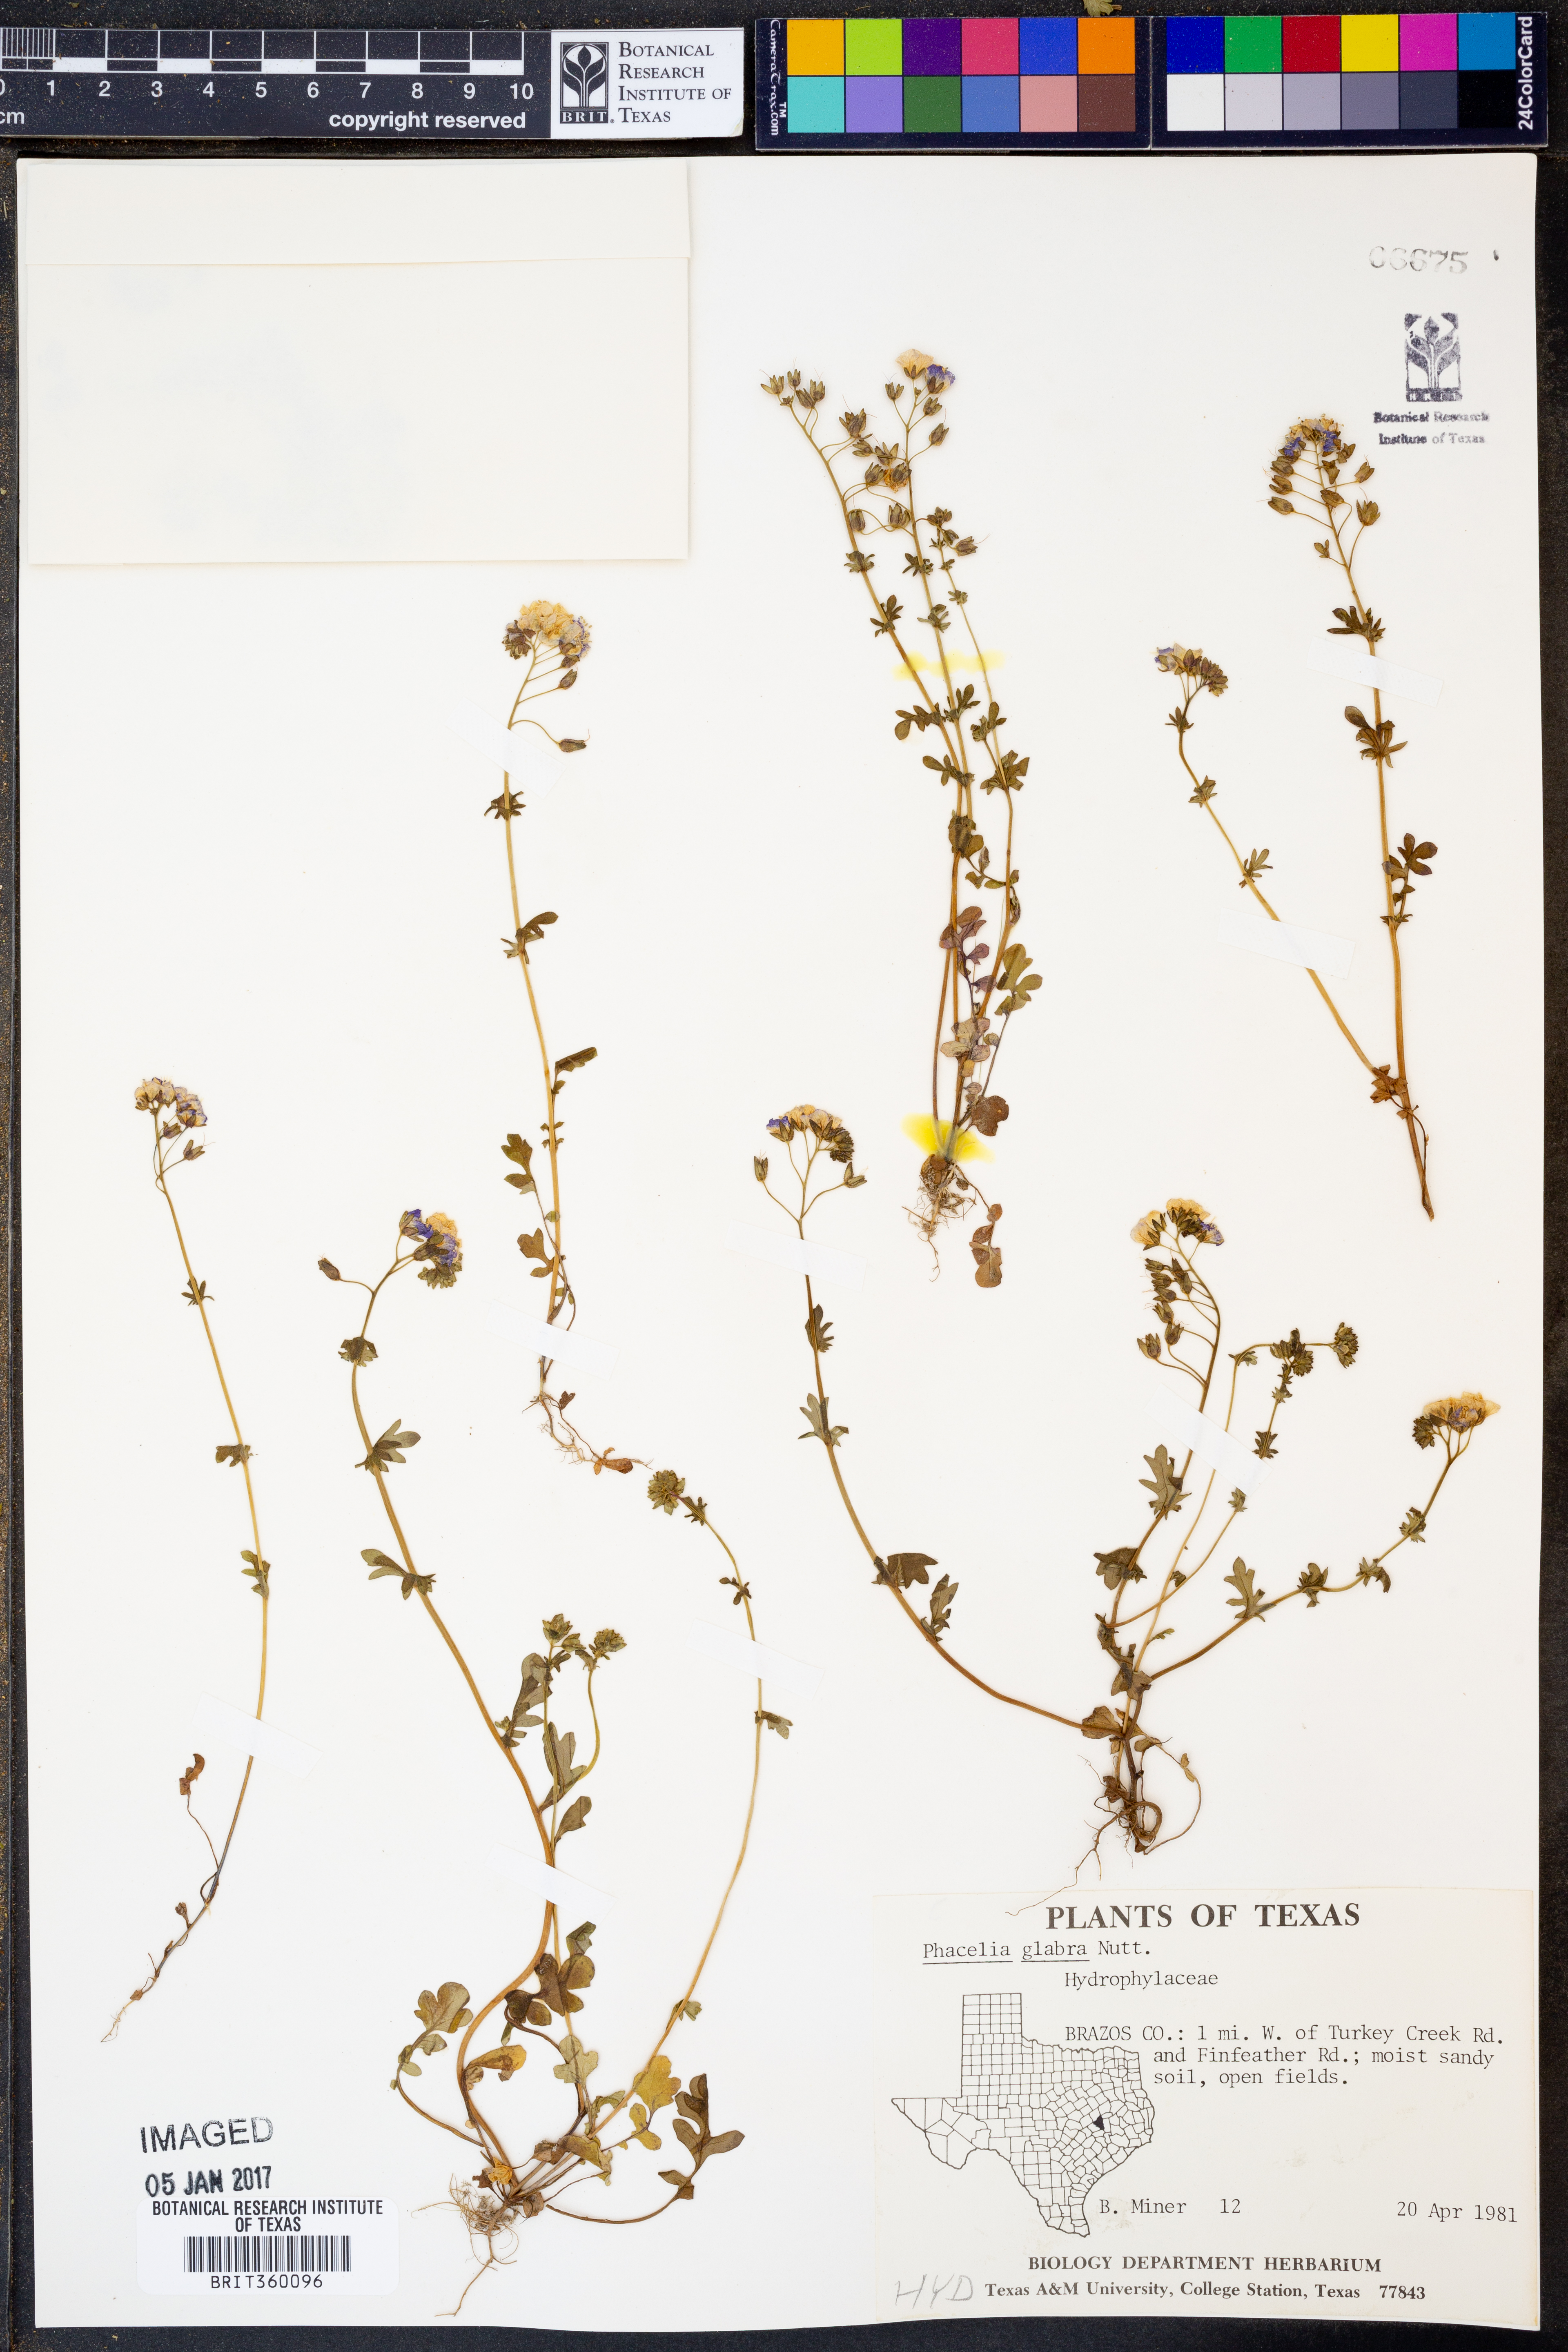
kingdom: Plantae
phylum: Tracheophyta
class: Magnoliopsida
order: Boraginales
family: Hydrophyllaceae
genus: Phacelia
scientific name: Phacelia glabra
